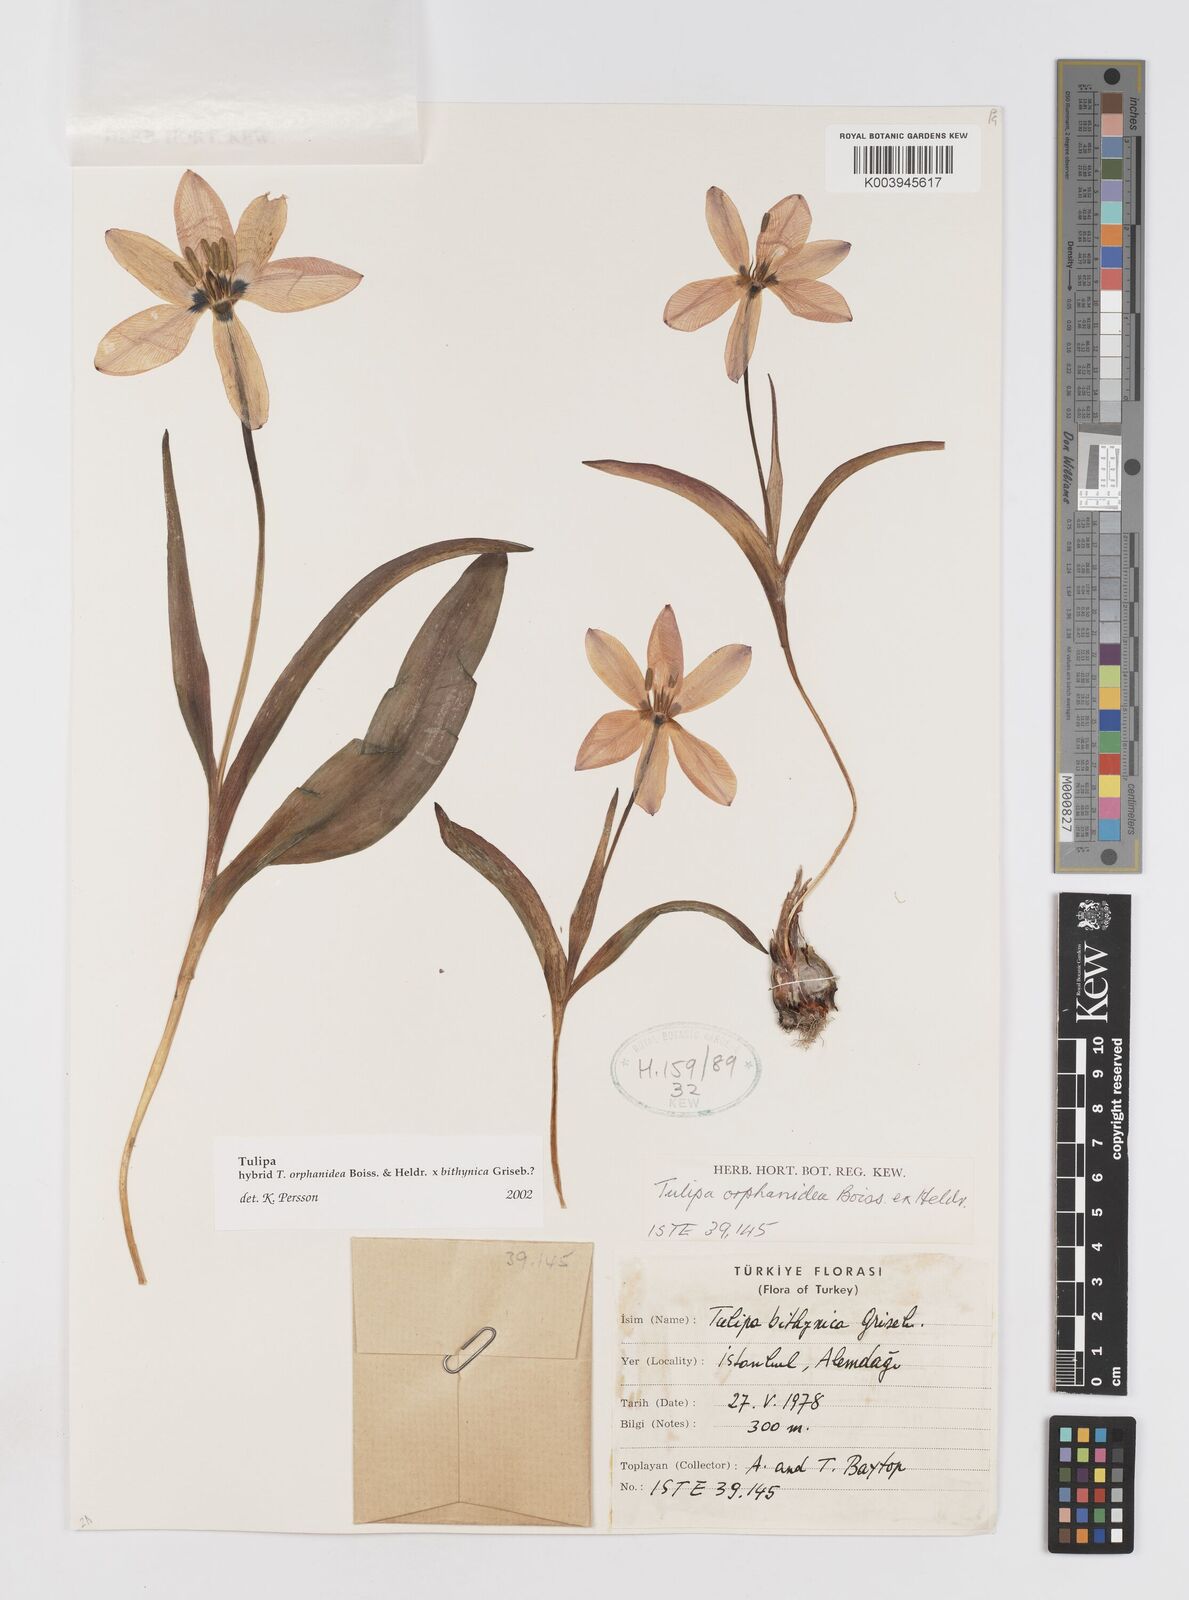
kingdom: Plantae
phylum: Tracheophyta
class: Liliopsida
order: Liliales
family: Liliaceae
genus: Tulipa
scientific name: Tulipa orphanidea
